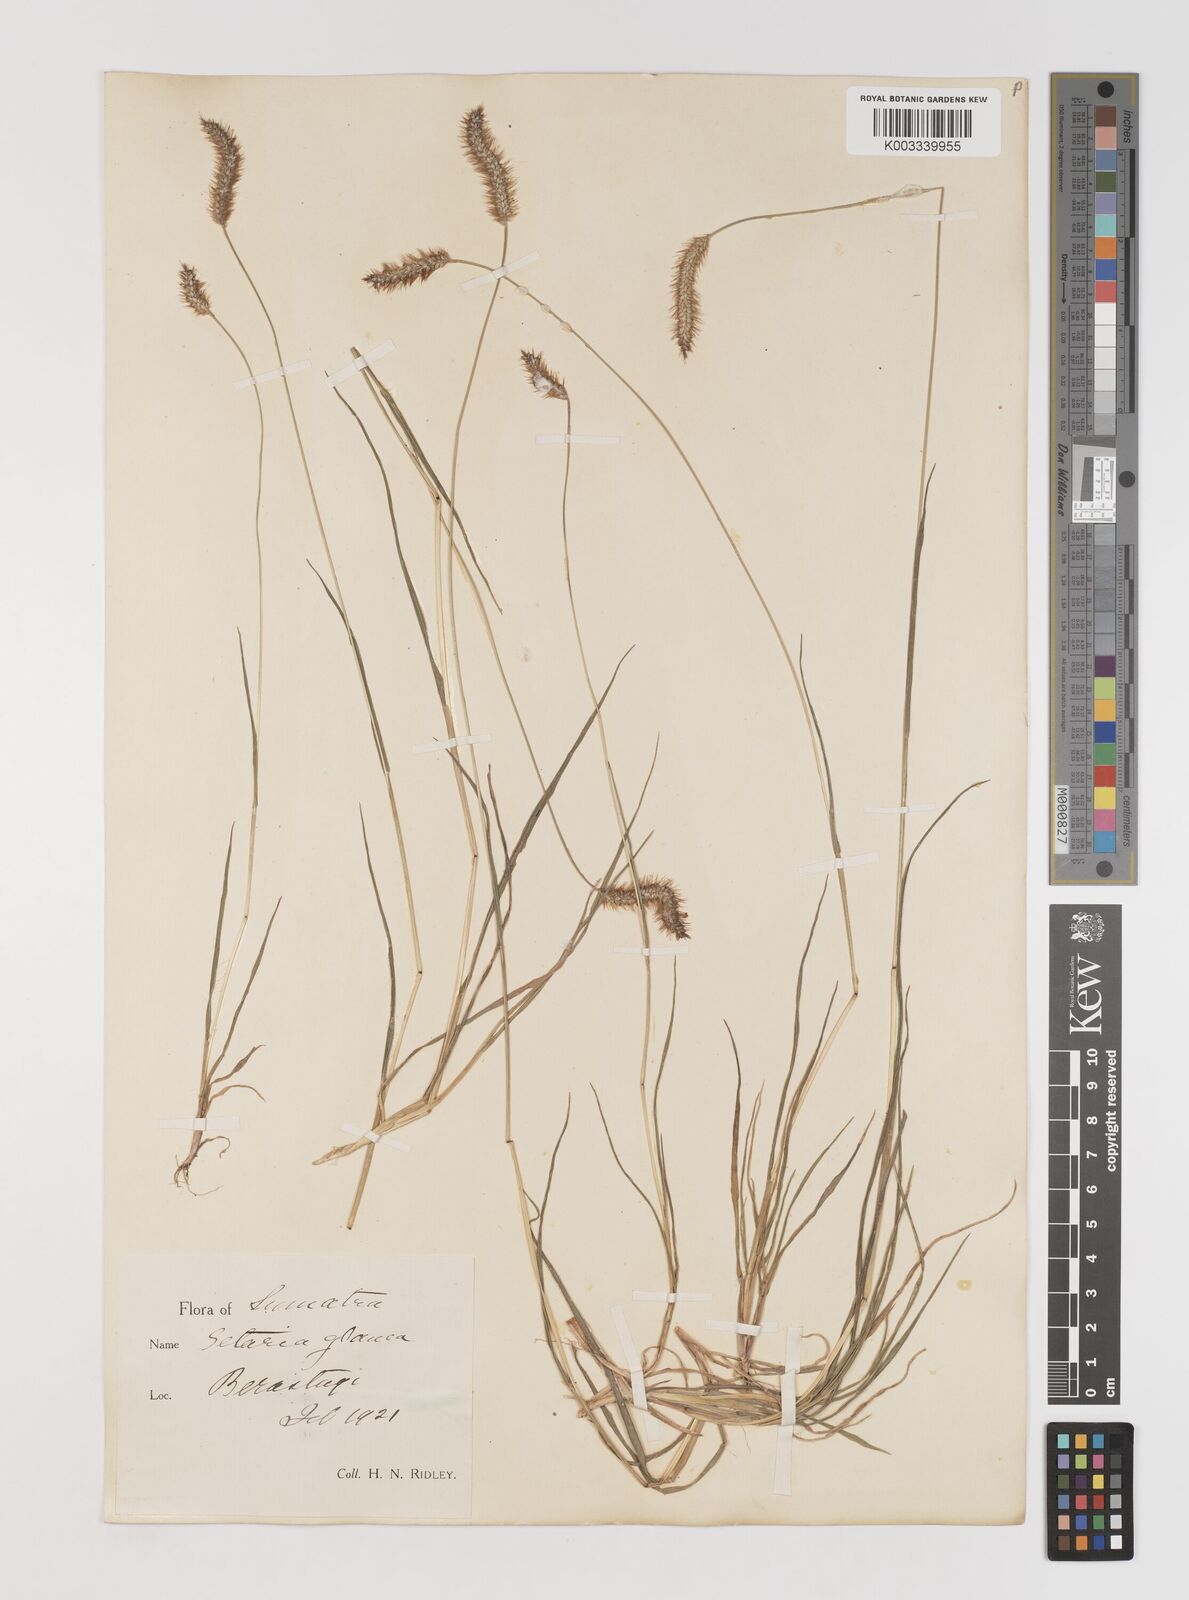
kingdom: Plantae
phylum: Tracheophyta
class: Liliopsida
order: Poales
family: Poaceae
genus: Setaria
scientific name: Setaria parviflora
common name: Knotroot bristle-grass
